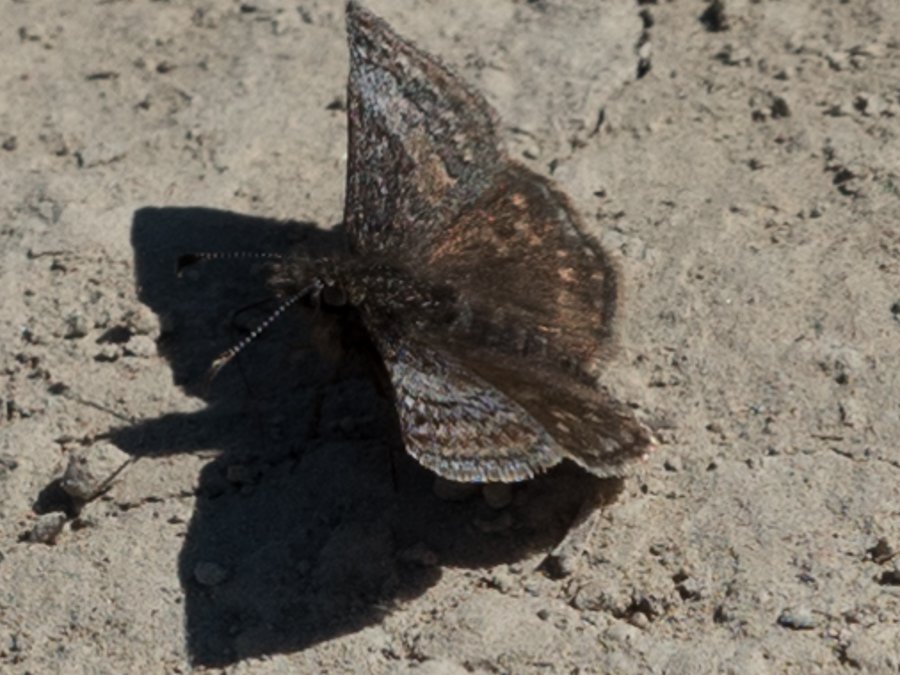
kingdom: Animalia
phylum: Arthropoda
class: Insecta
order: Lepidoptera
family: Hesperiidae
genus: Erynnis
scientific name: Erynnis icelus
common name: Dreamy Duskywing
